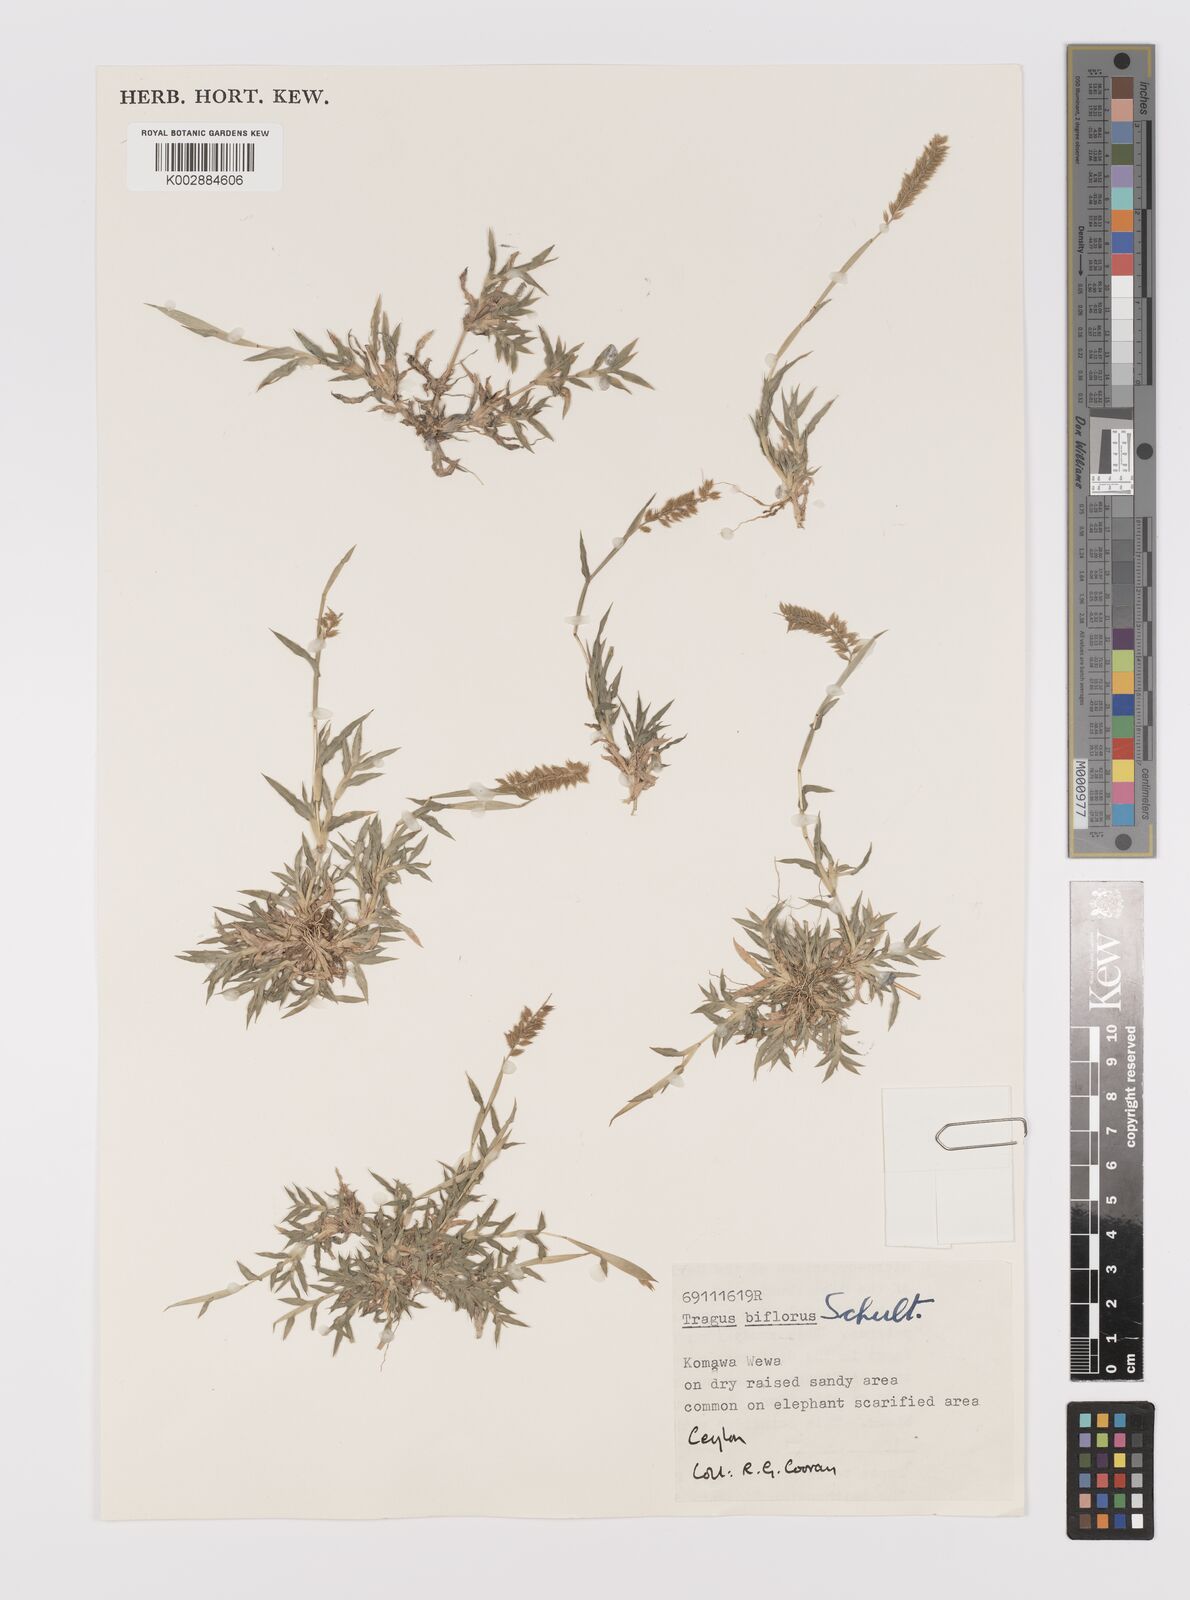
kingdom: Plantae
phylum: Tracheophyta
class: Liliopsida
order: Poales
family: Poaceae
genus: Tragus
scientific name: Tragus mongolorum
